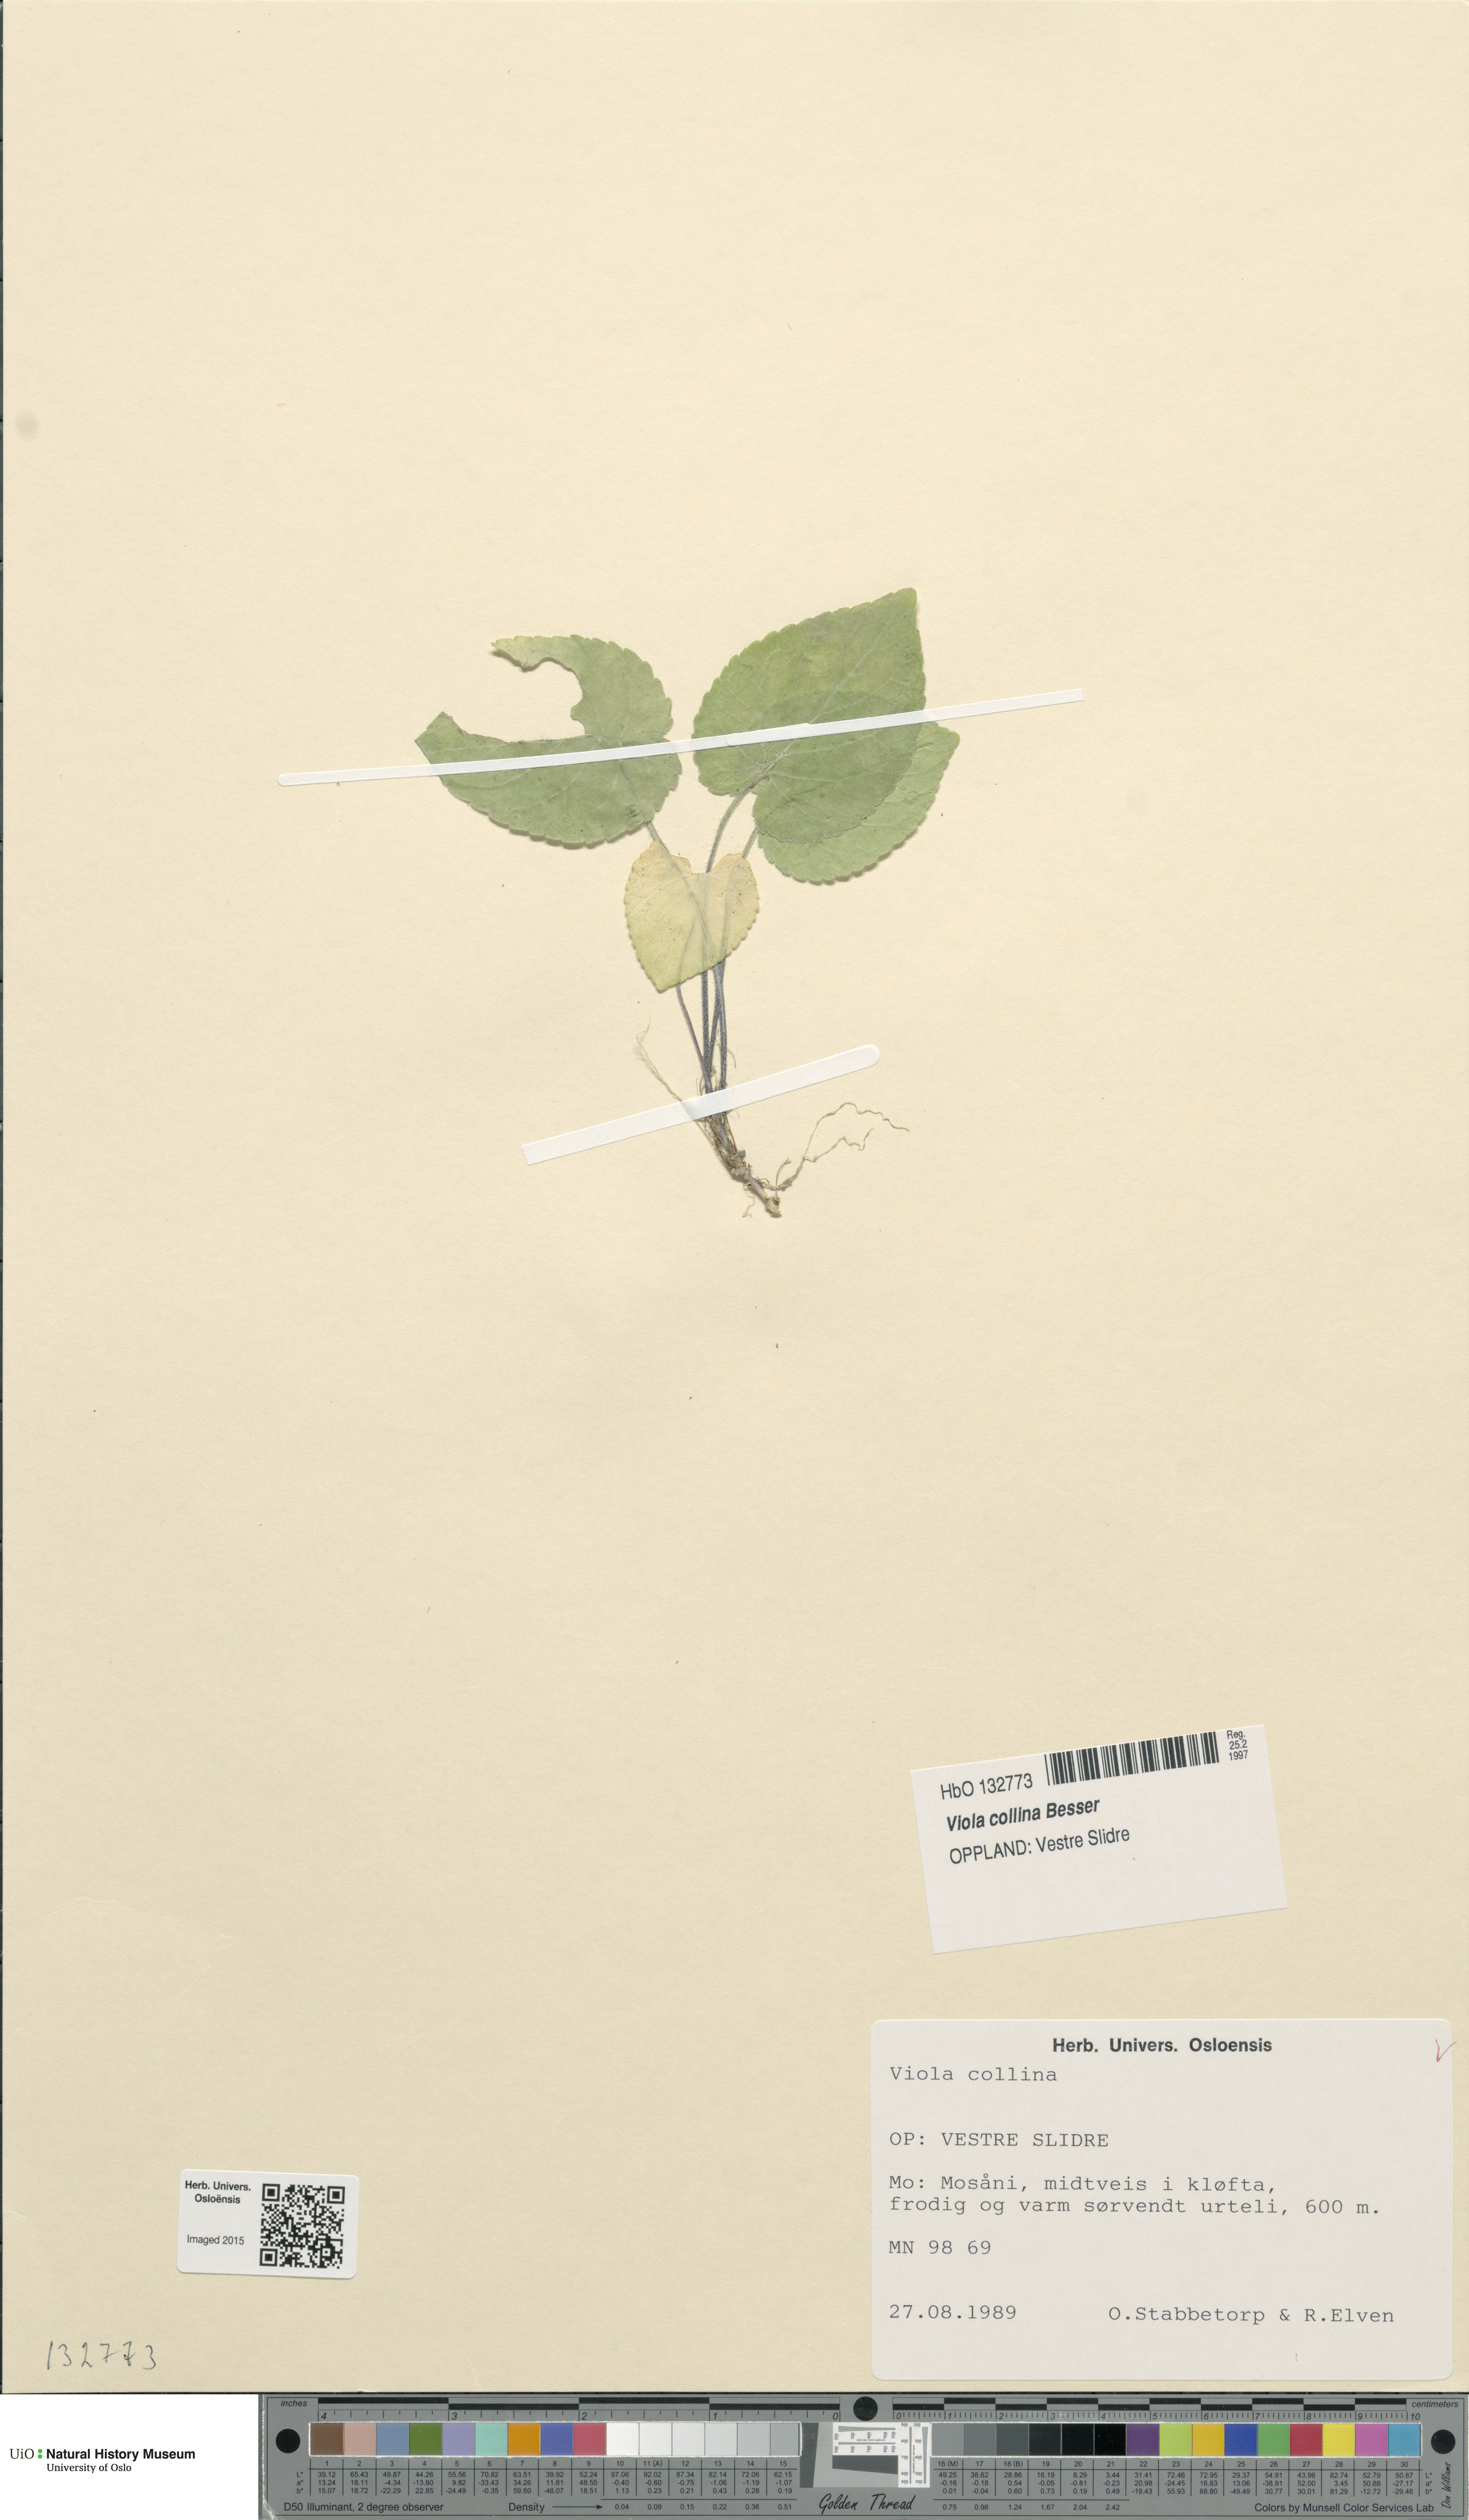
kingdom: Plantae
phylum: Tracheophyta
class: Magnoliopsida
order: Malpighiales
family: Violaceae
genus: Viola
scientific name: Viola collina
